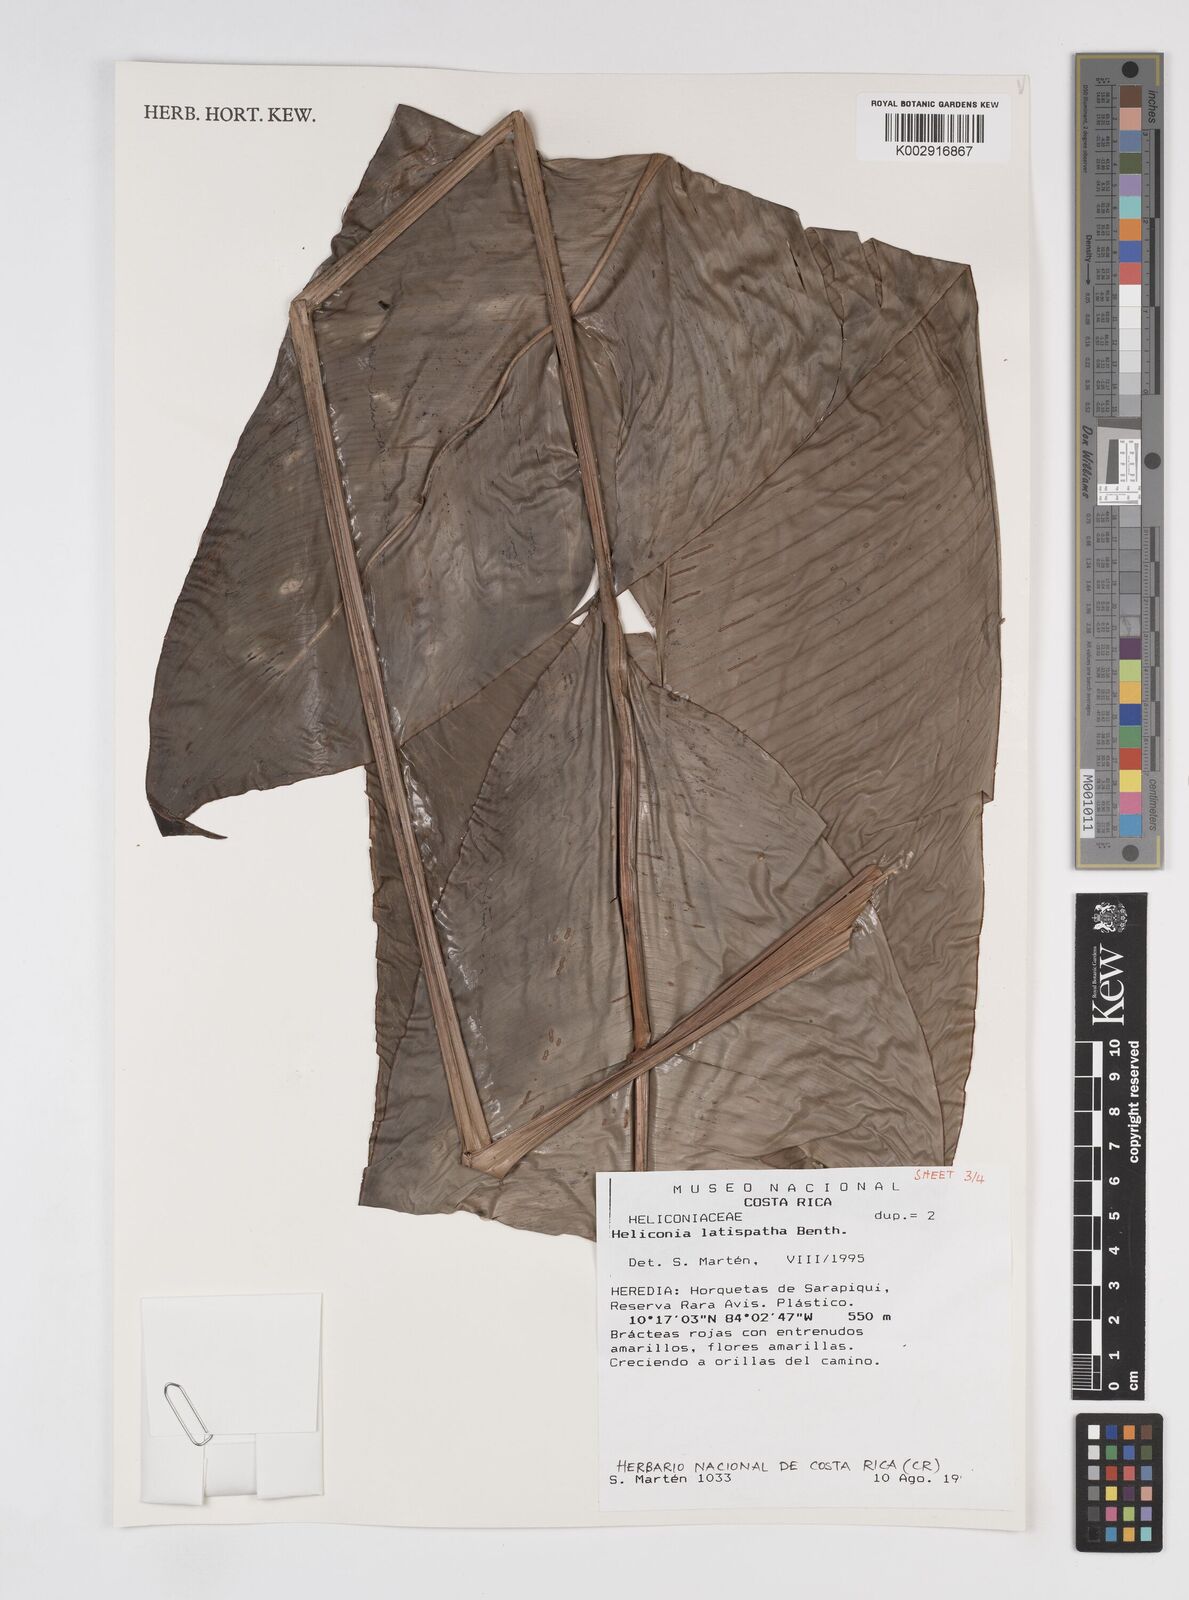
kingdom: Plantae
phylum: Tracheophyta
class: Liliopsida
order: Zingiberales
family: Heliconiaceae
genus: Heliconia
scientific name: Heliconia latispatha
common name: Expanded lobsterclaw
